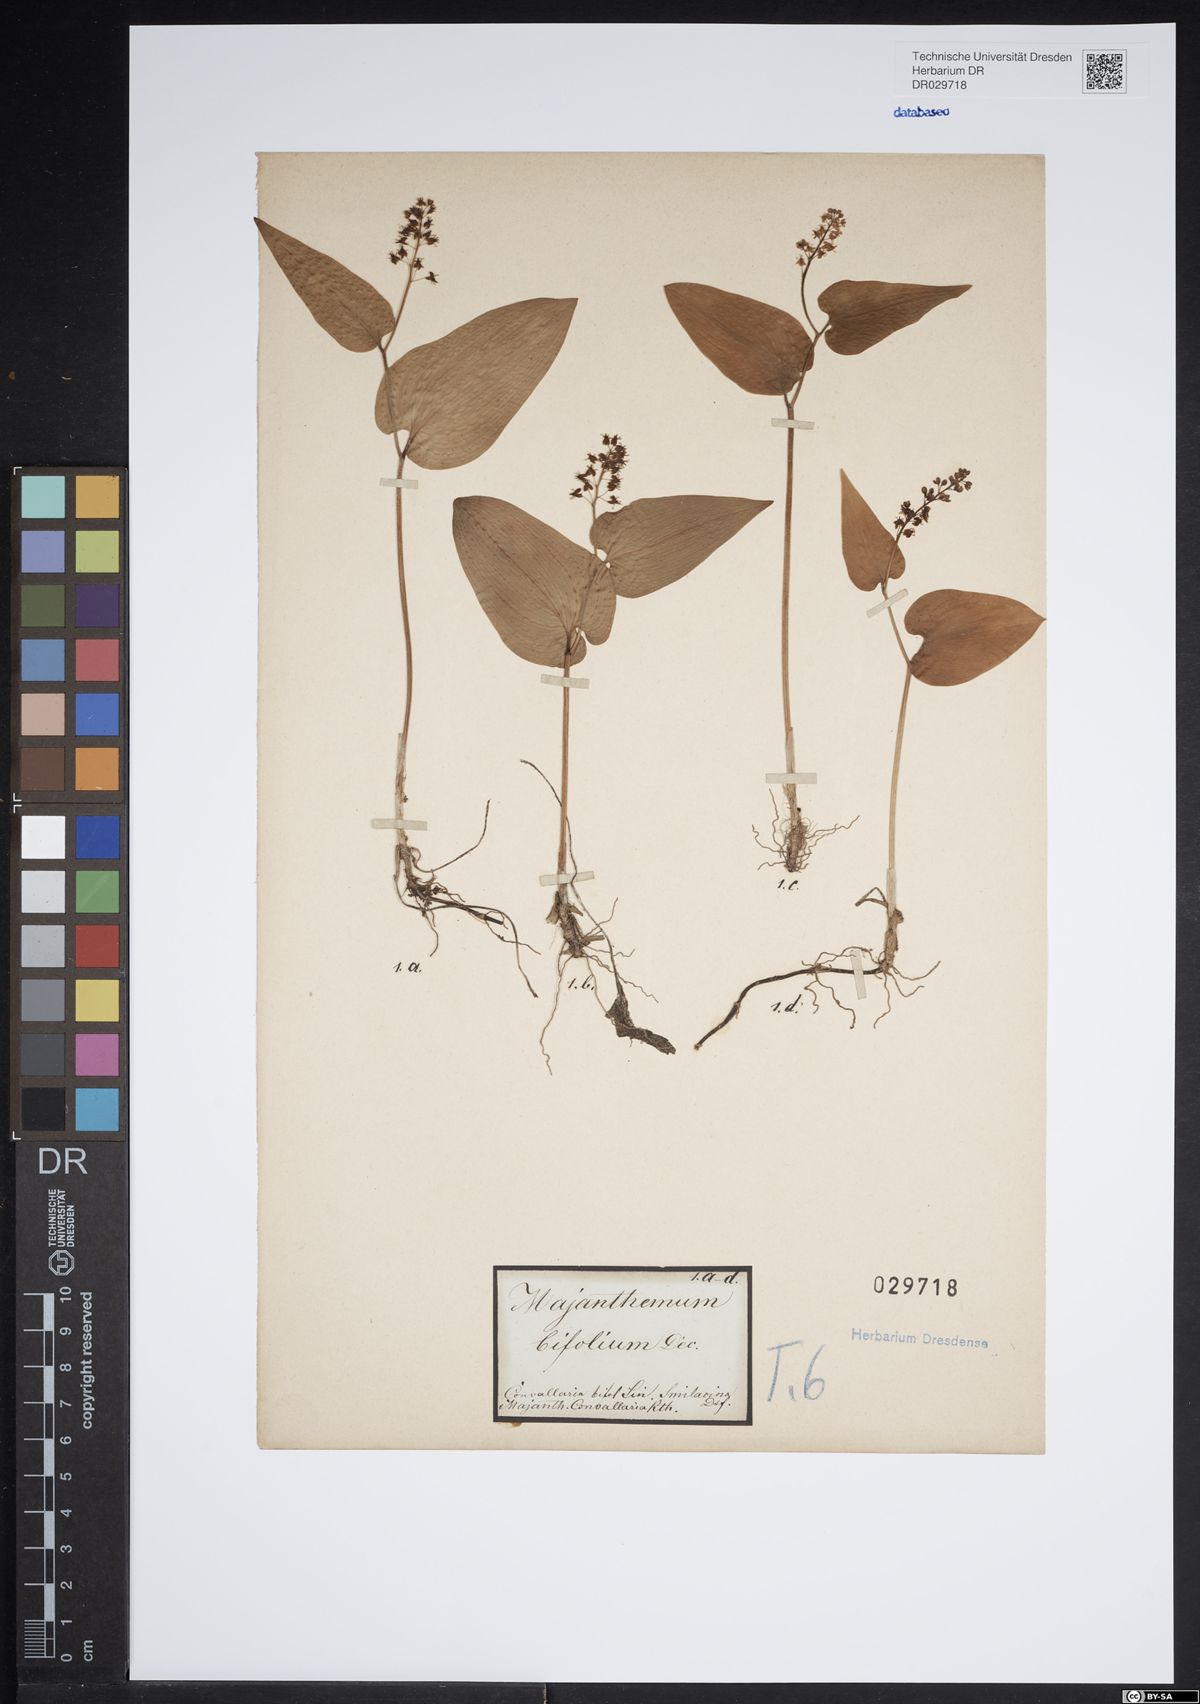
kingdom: Plantae
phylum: Tracheophyta
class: Liliopsida
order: Asparagales
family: Asparagaceae
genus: Maianthemum
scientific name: Maianthemum bifolium
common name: May lily
